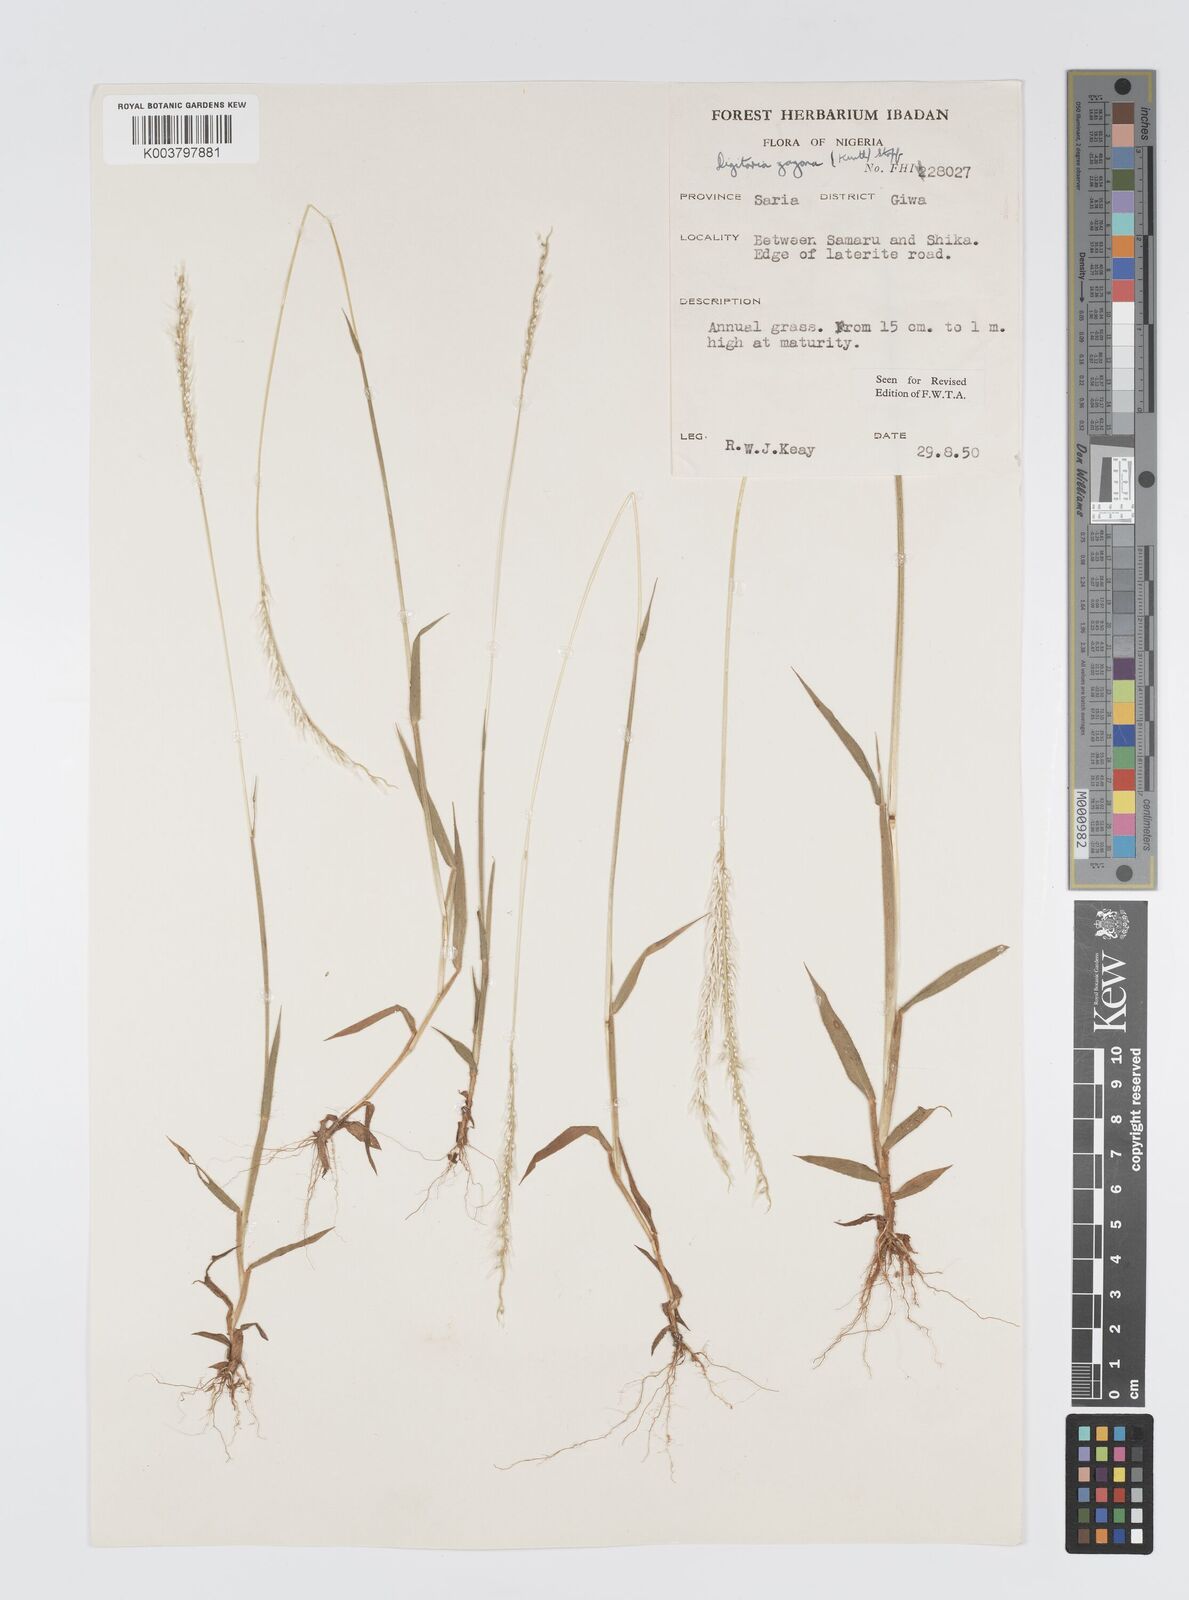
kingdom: Plantae
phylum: Tracheophyta
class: Liliopsida
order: Poales
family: Poaceae
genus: Digitaria
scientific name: Digitaria gayana
